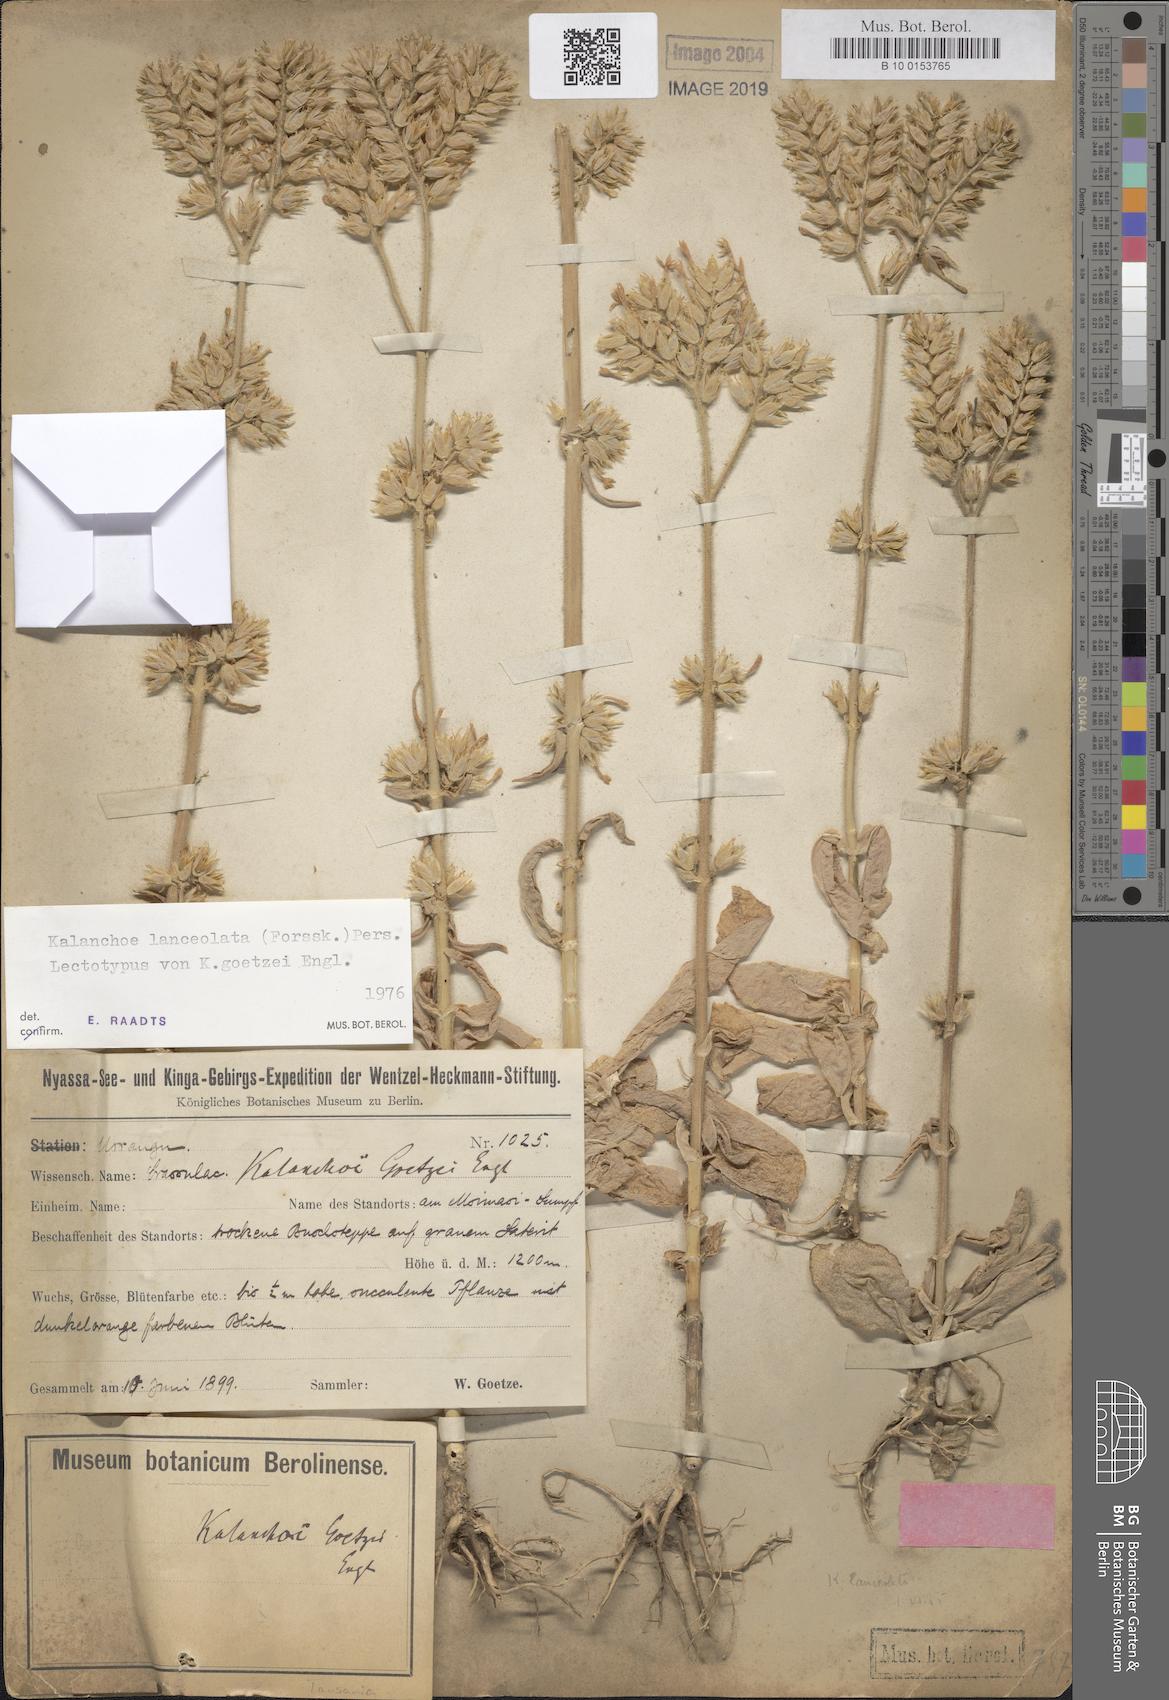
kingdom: Plantae
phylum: Tracheophyta
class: Magnoliopsida
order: Saxifragales
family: Crassulaceae
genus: Kalanchoe
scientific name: Kalanchoe lanceolata
